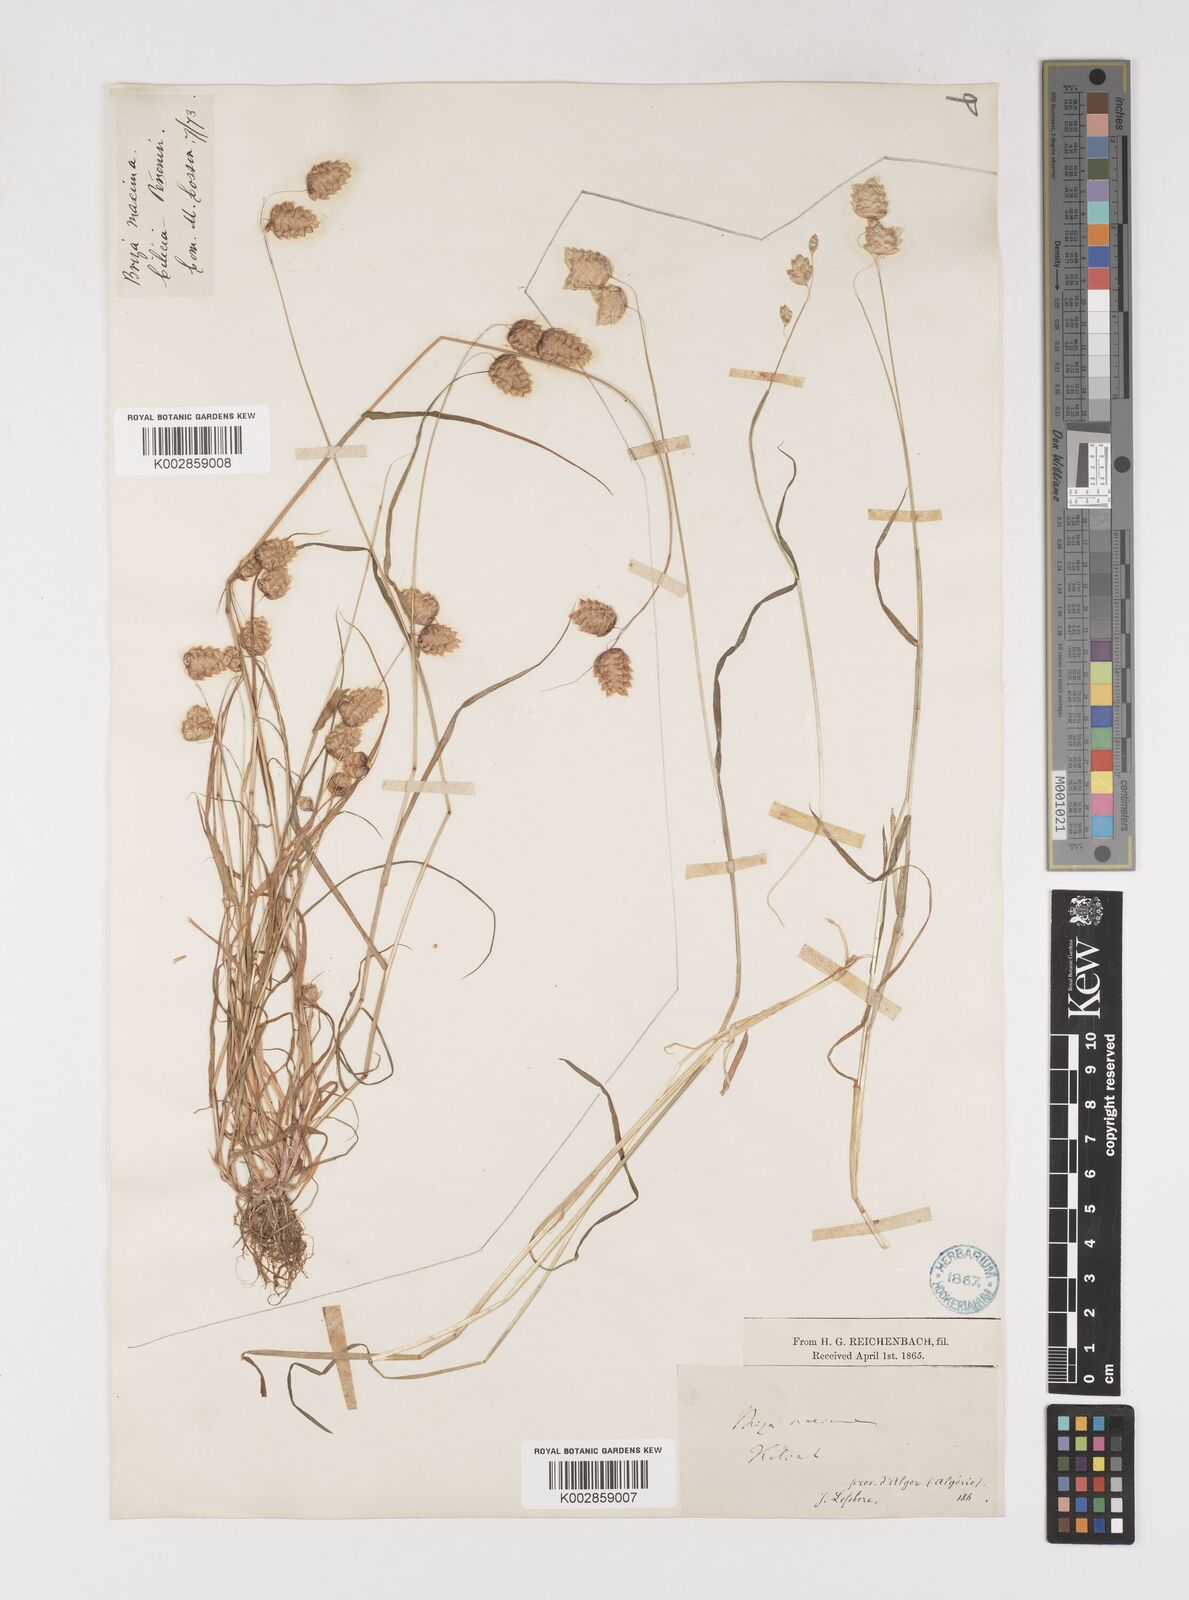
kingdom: Plantae
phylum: Tracheophyta
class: Liliopsida
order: Poales
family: Poaceae
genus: Briza
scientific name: Briza maxima
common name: Big quakinggrass
